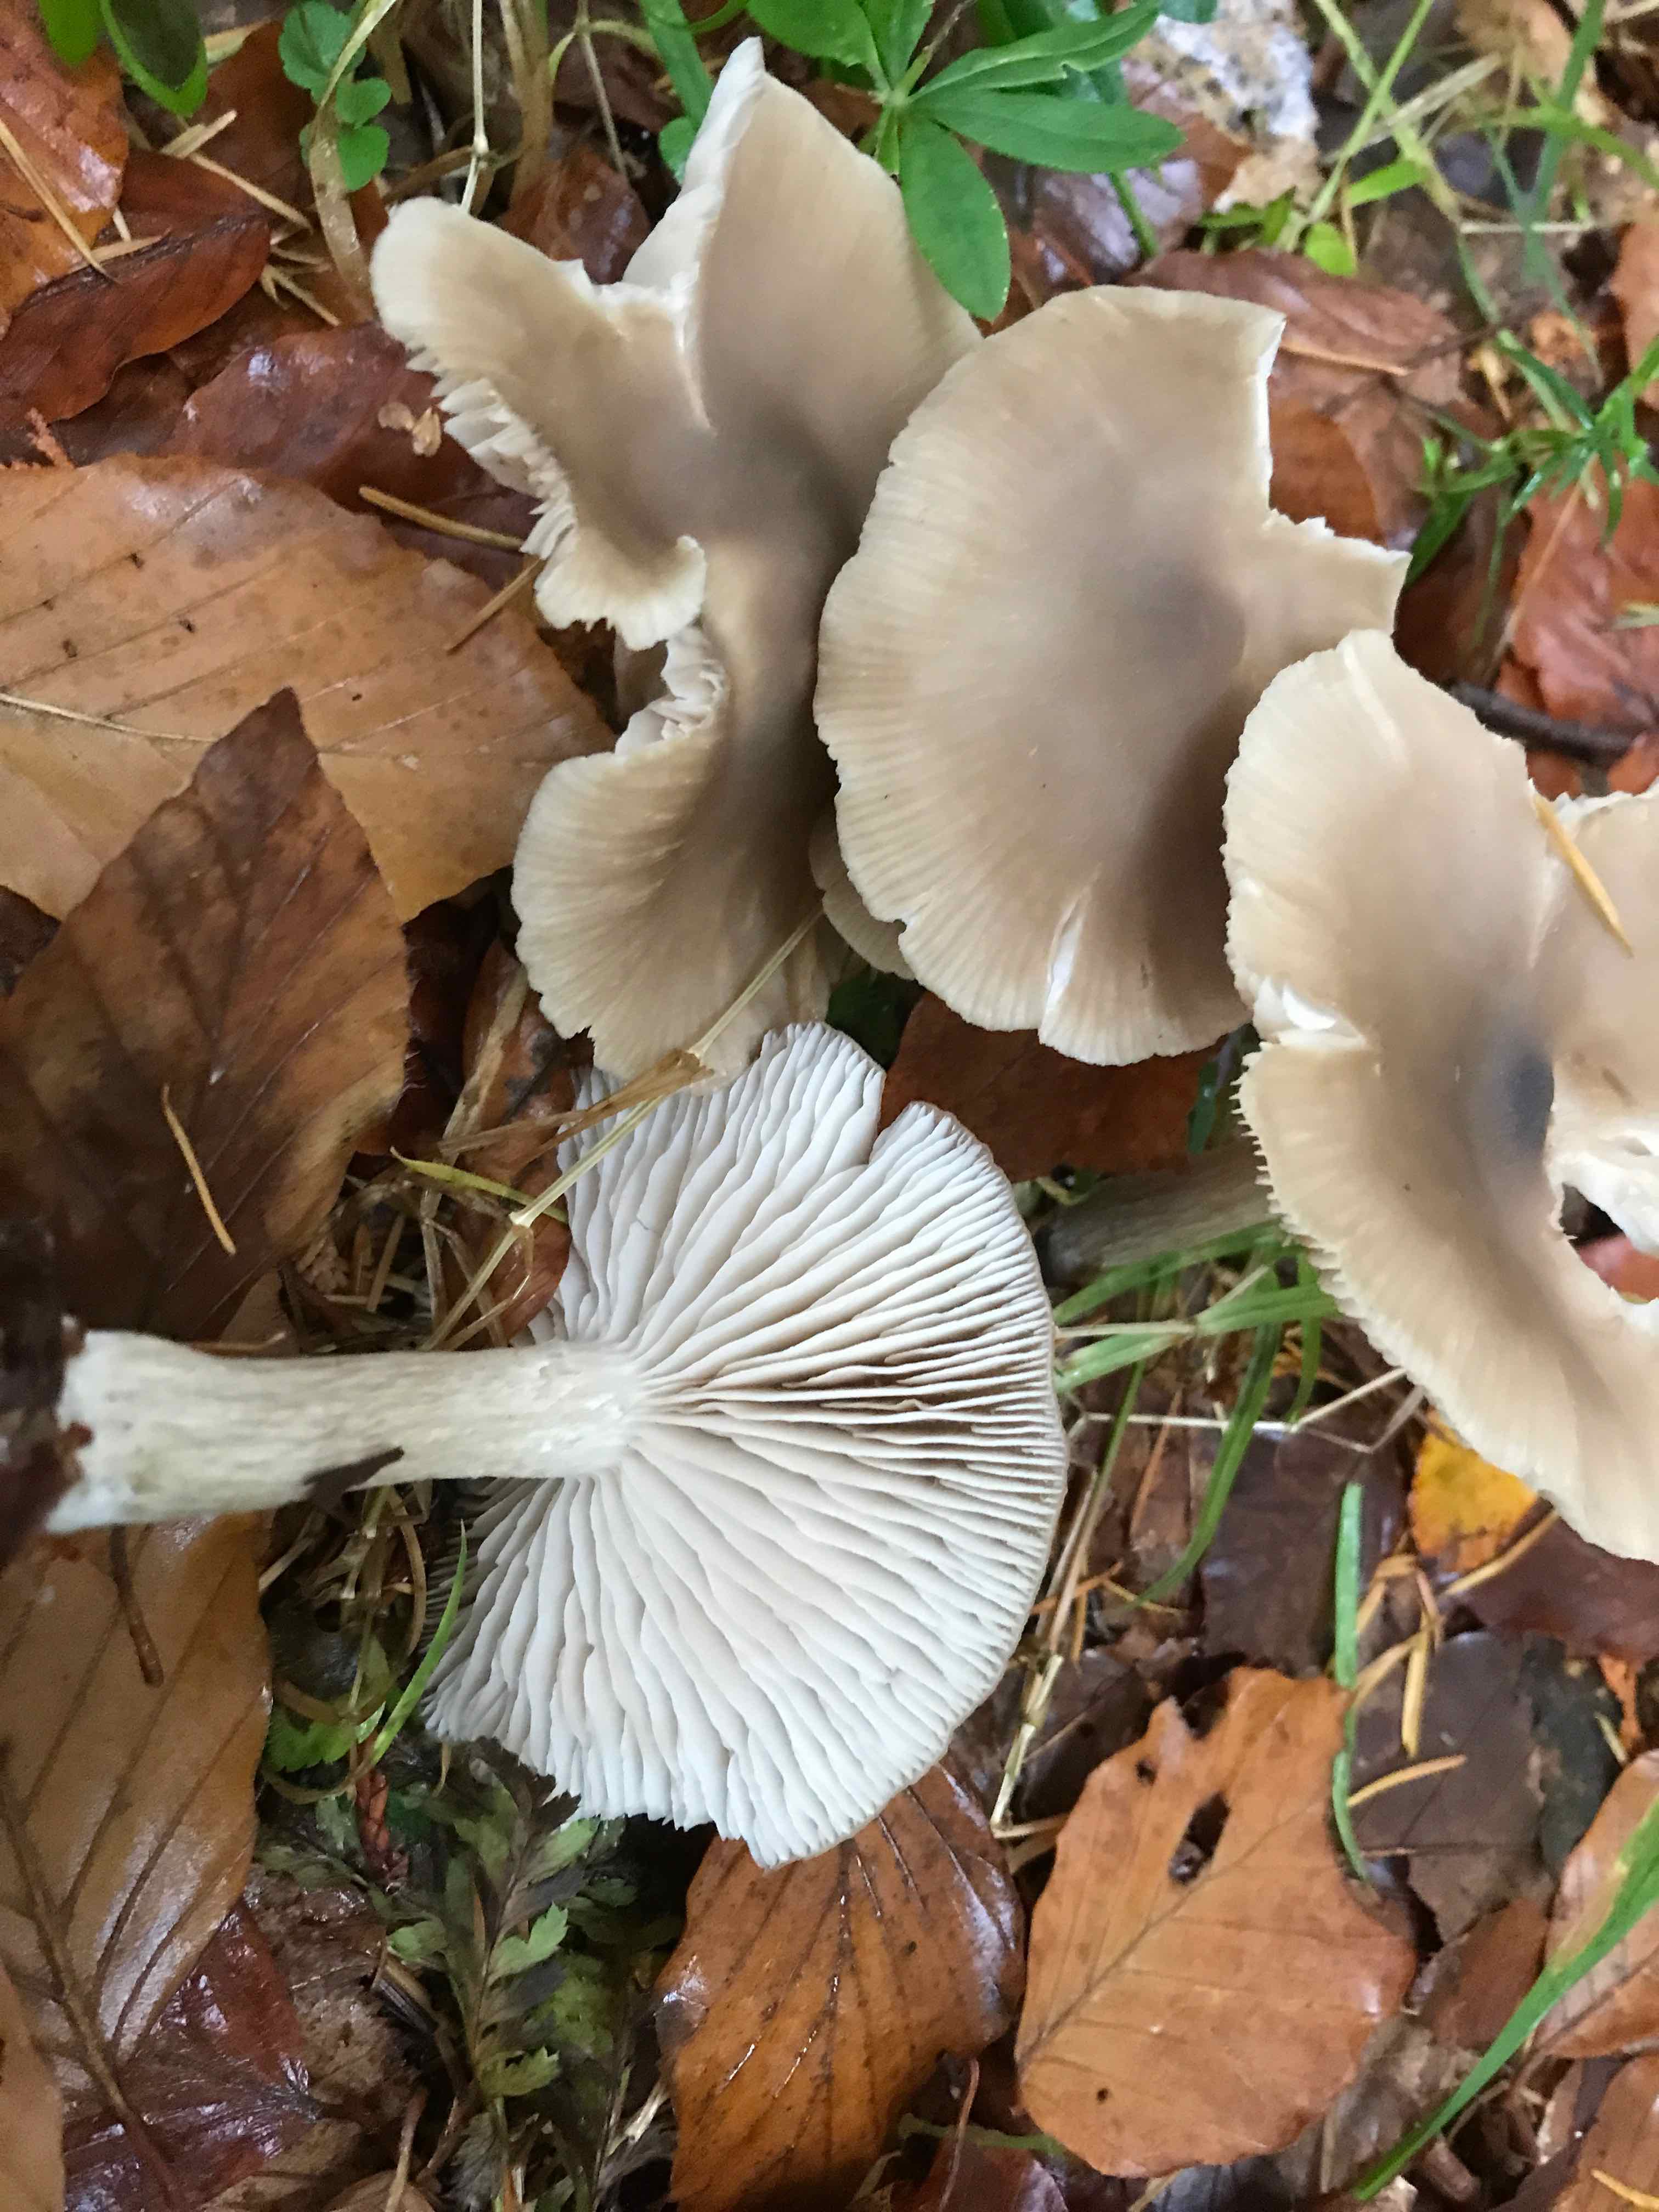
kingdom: Fungi
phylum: Basidiomycota
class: Agaricomycetes
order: Agaricales
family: Entolomataceae
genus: Entoloma
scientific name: Entoloma rhodopolium
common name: skov-rødblad
